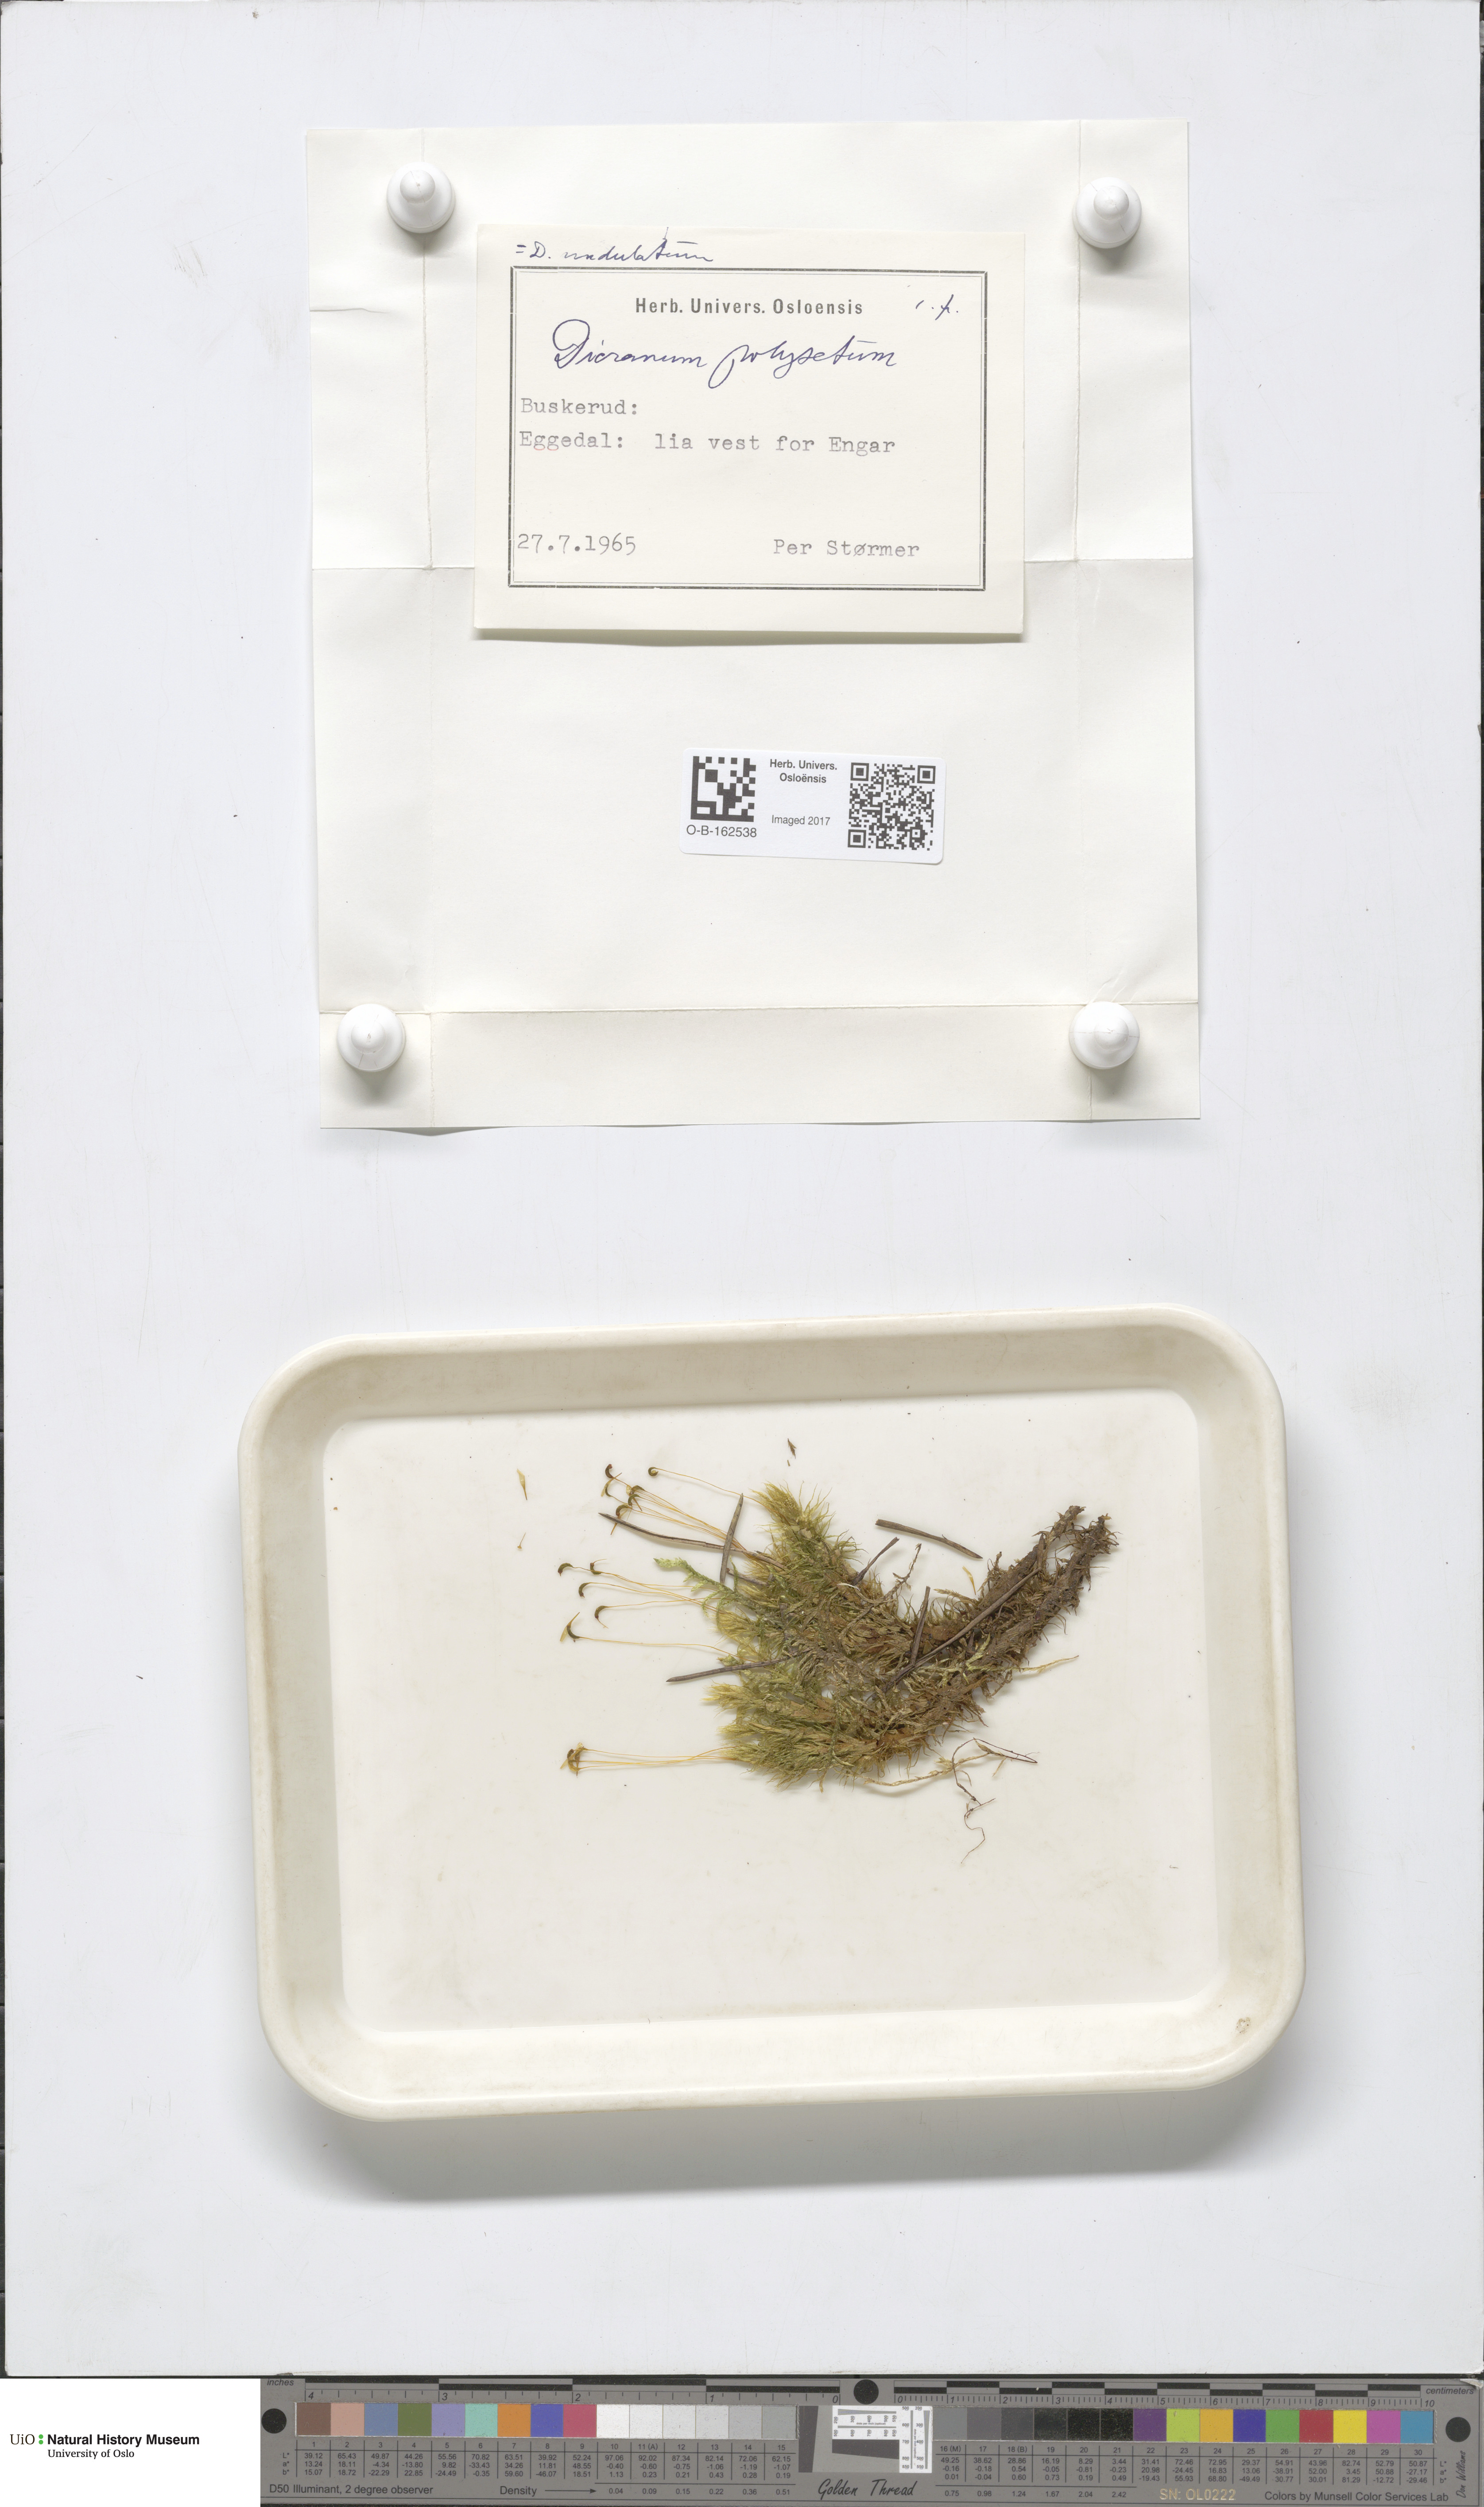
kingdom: Plantae
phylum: Bryophyta
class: Bryopsida
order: Dicranales
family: Dicranaceae
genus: Dicranum
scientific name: Dicranum polysetum
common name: Rugose fork-moss
